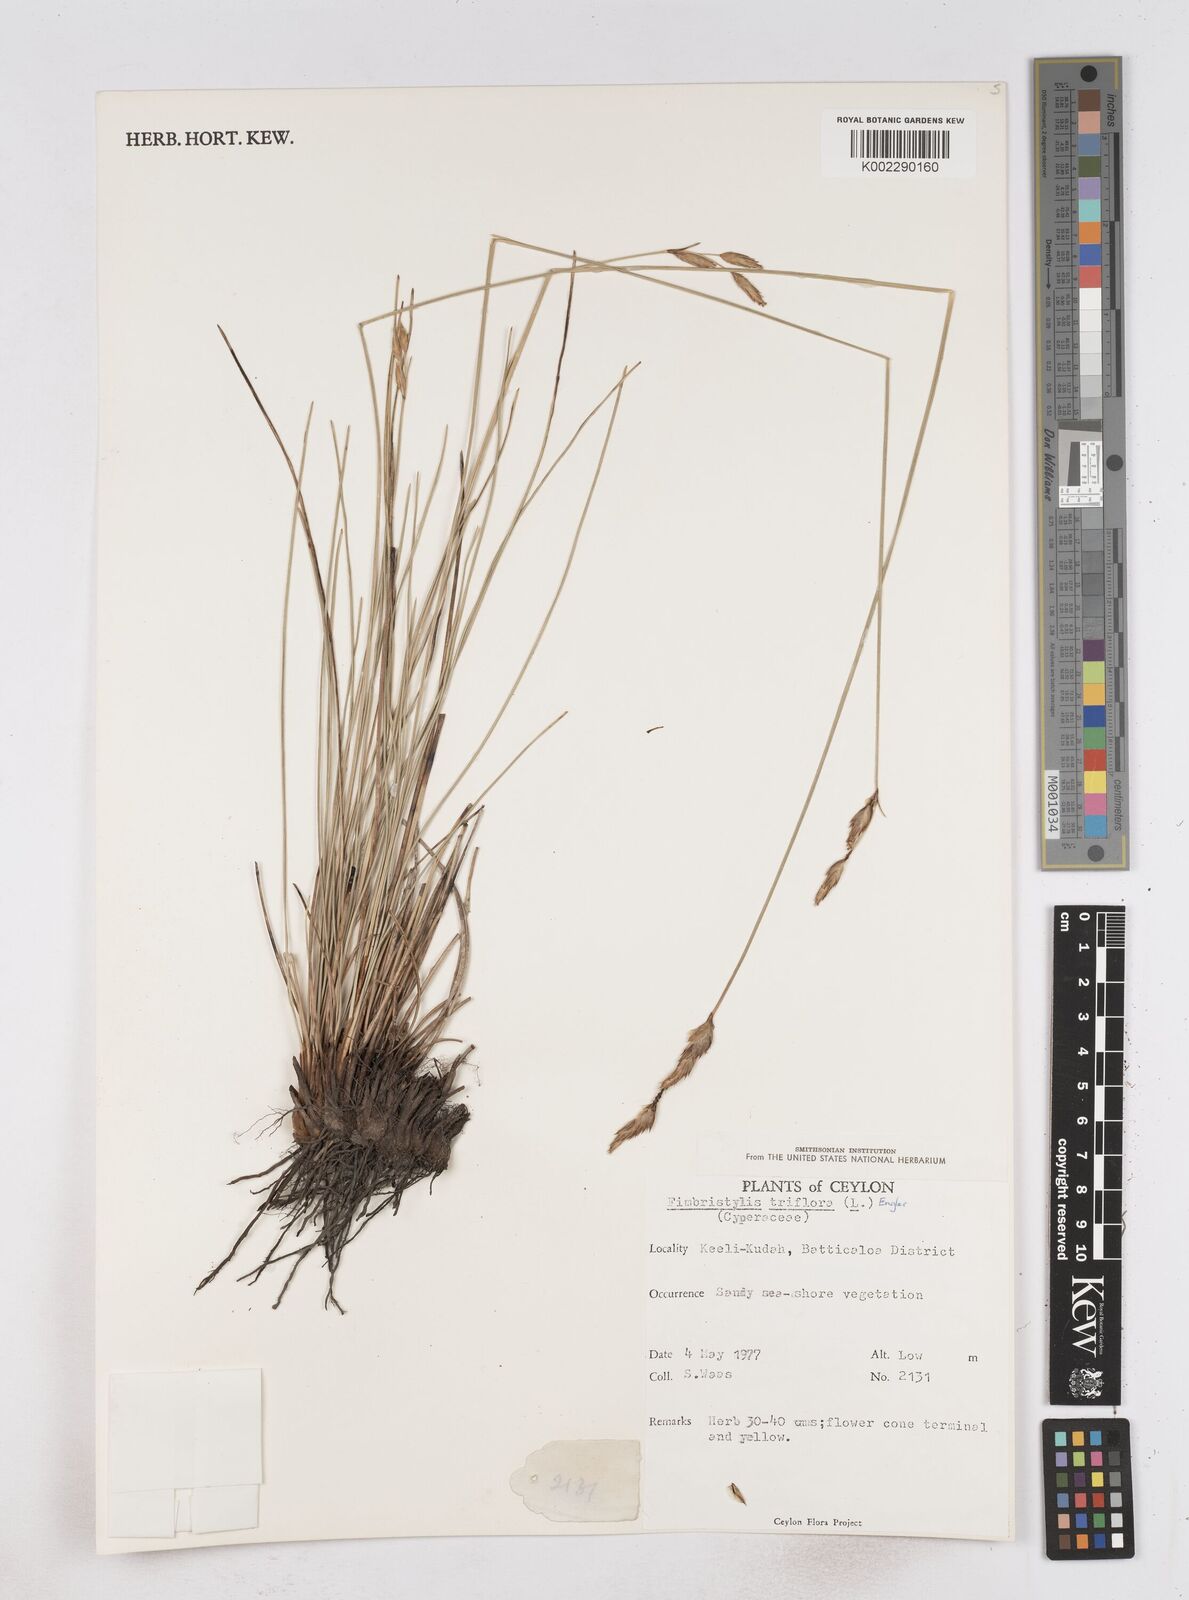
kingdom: Plantae
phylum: Tracheophyta
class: Liliopsida
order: Poales
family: Cyperaceae
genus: Abildgaardia
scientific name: Abildgaardia triflora
